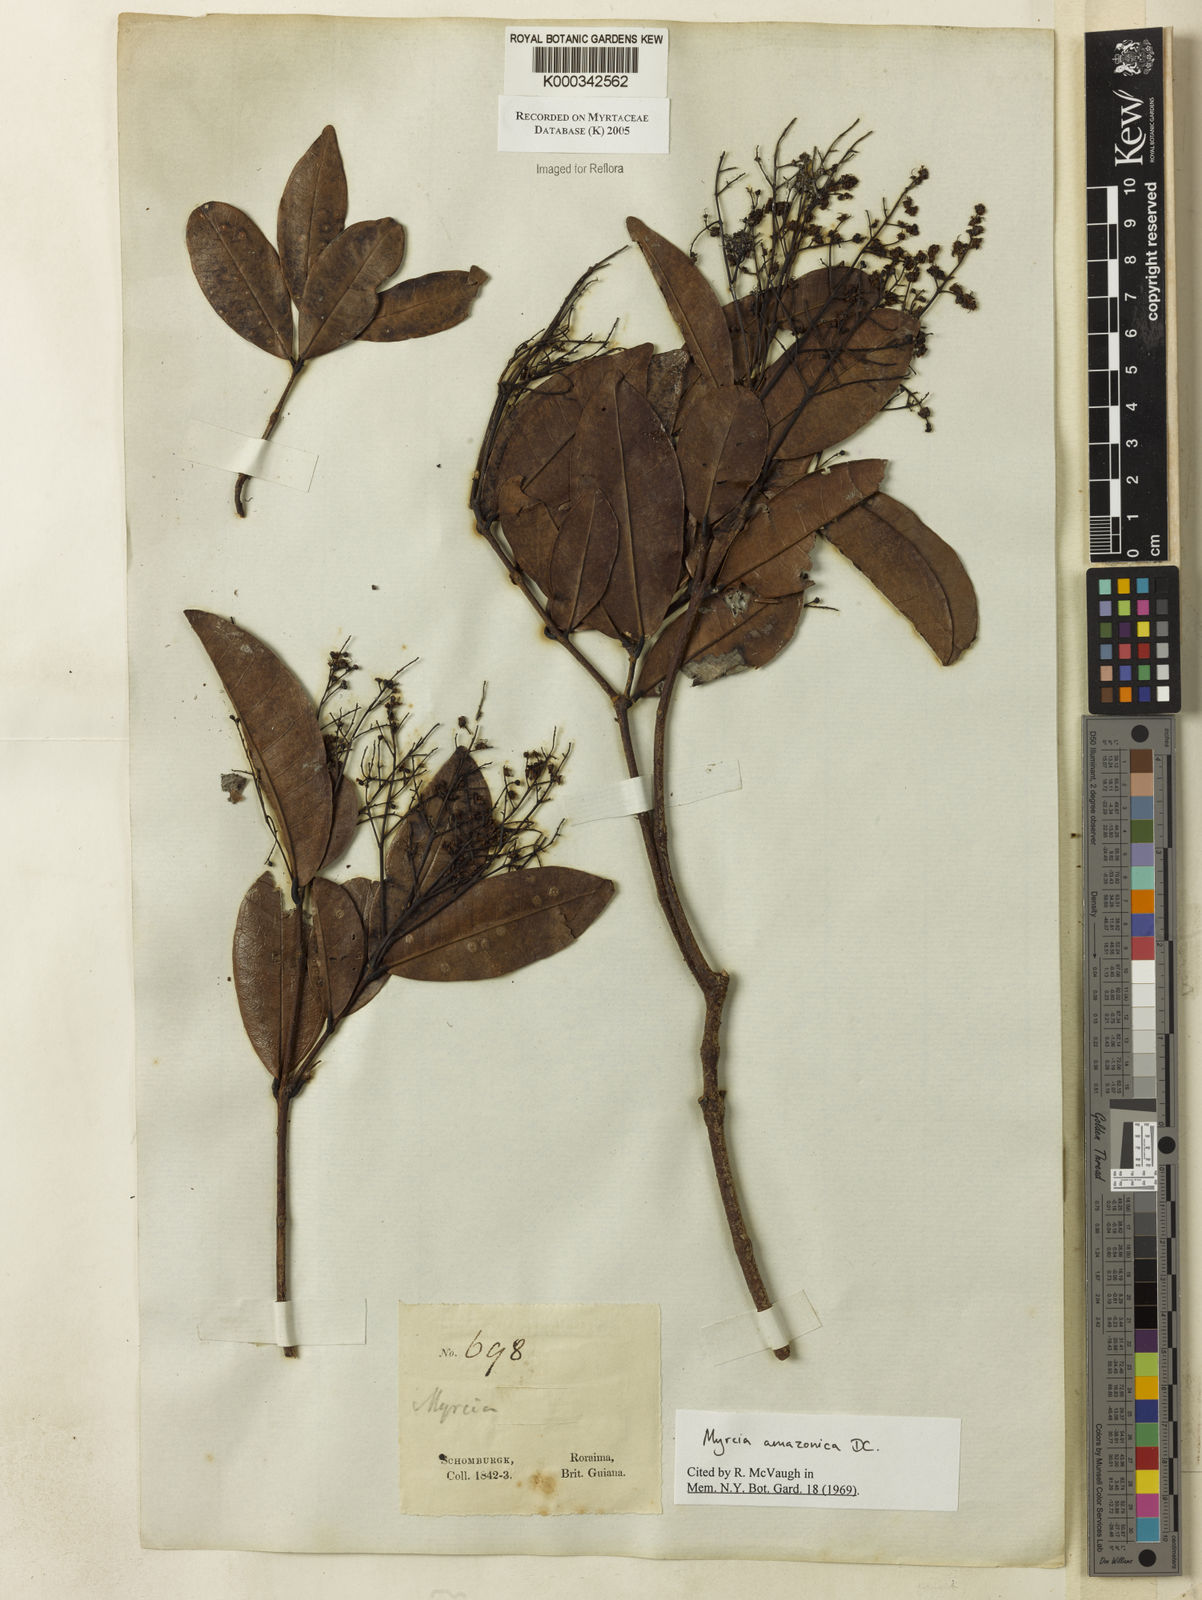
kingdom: Plantae
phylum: Tracheophyta
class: Magnoliopsida
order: Myrtales
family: Myrtaceae
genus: Myrcia
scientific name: Myrcia amazonica
